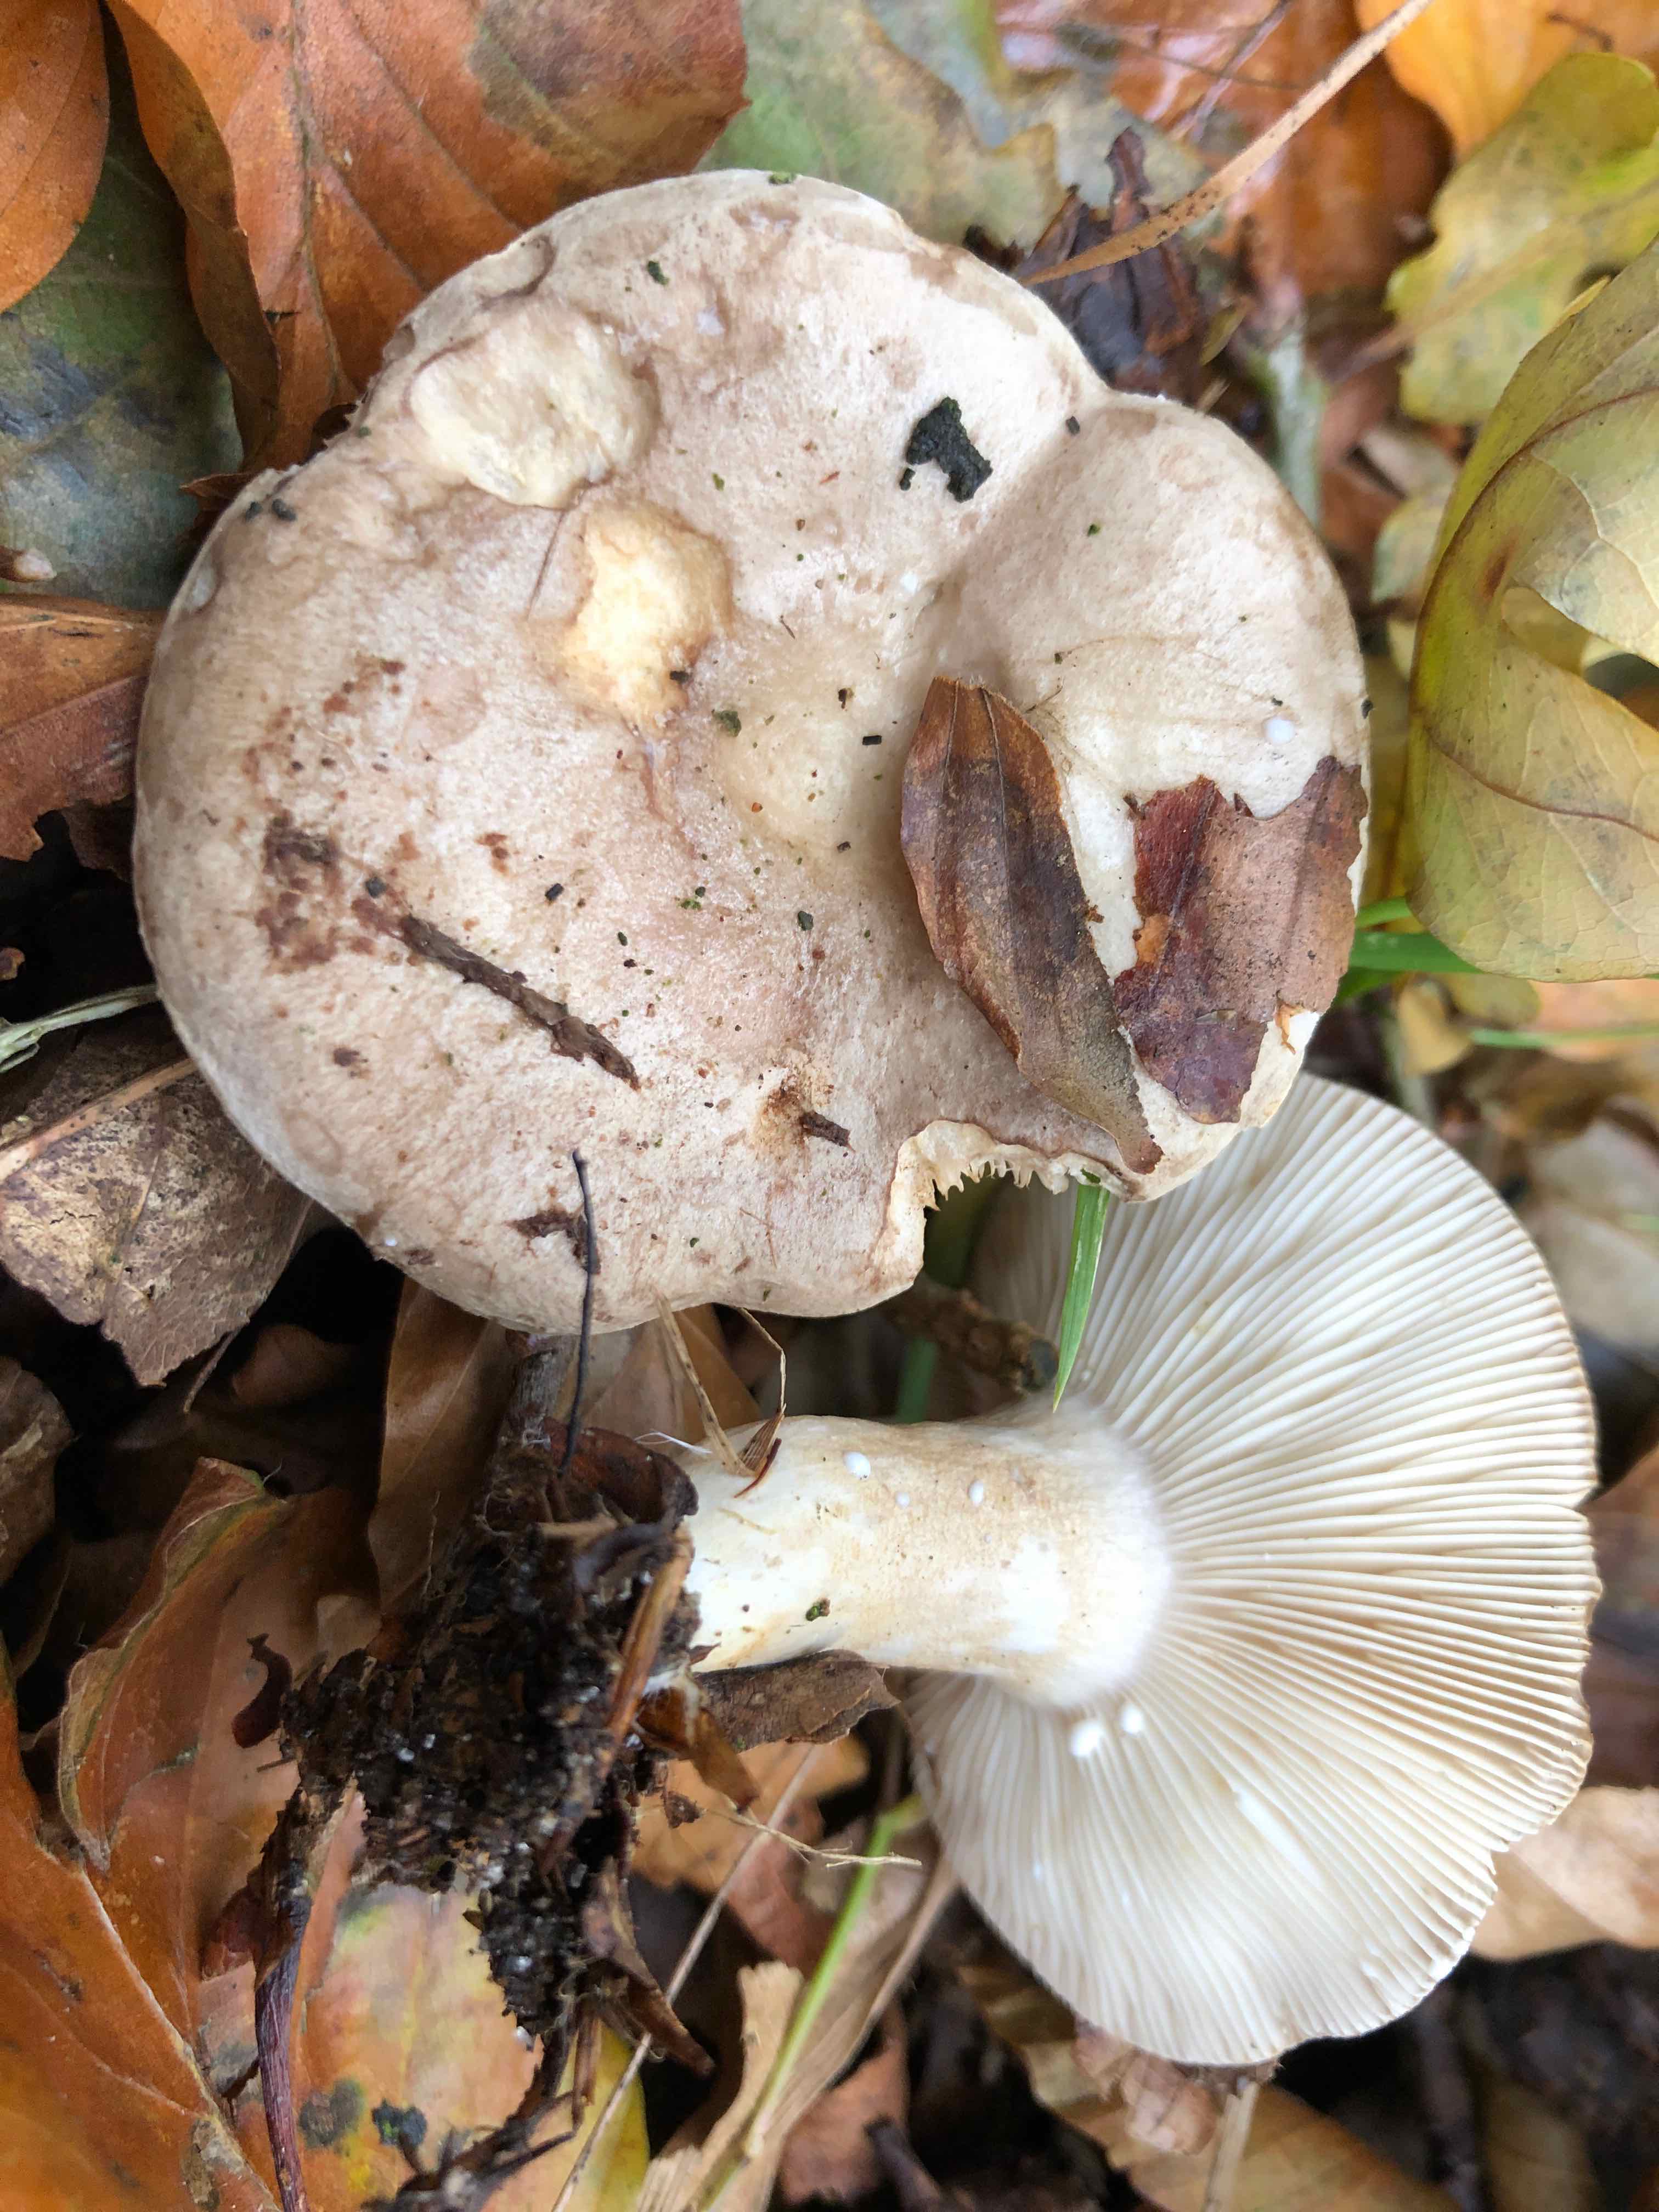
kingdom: Fungi
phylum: Basidiomycota
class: Agaricomycetes
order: Russulales
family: Russulaceae
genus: Lactarius
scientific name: Lactarius blennius
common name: dråbeplettet mælkehat
